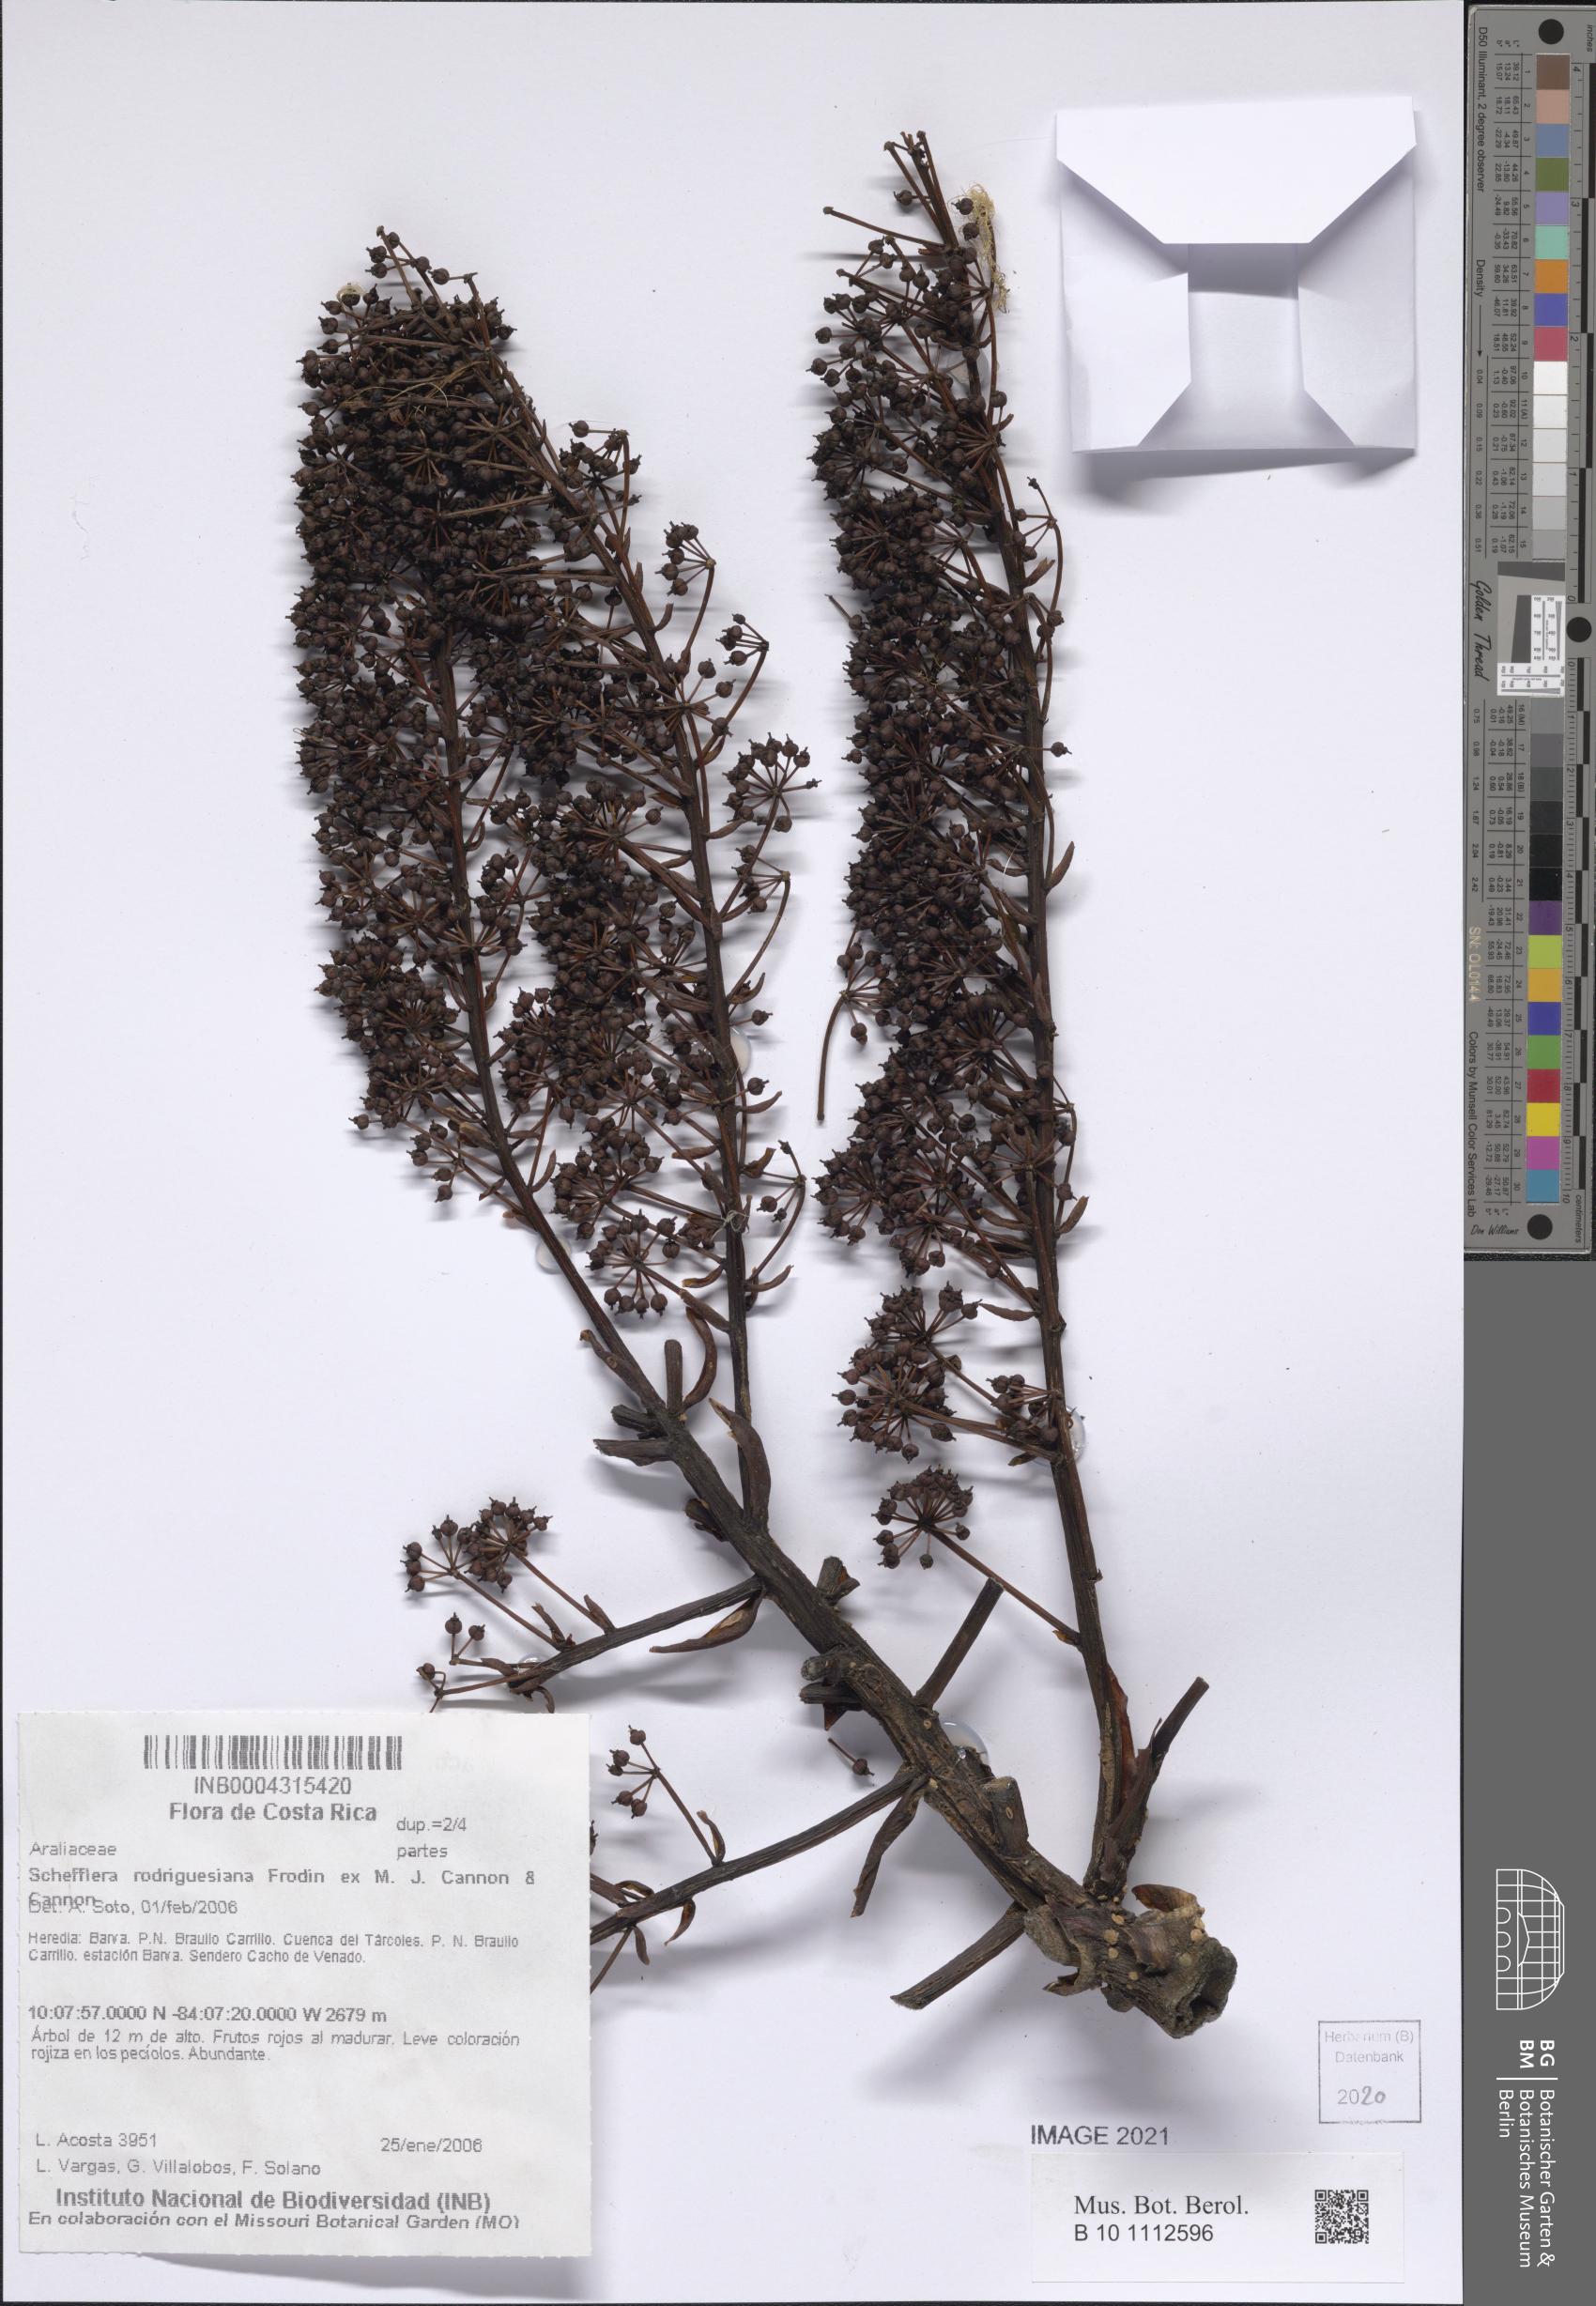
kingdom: Plantae
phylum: Tracheophyta
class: Magnoliopsida
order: Apiales
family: Araliaceae
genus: Sciodaphyllum
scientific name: Sciodaphyllum pittieri
